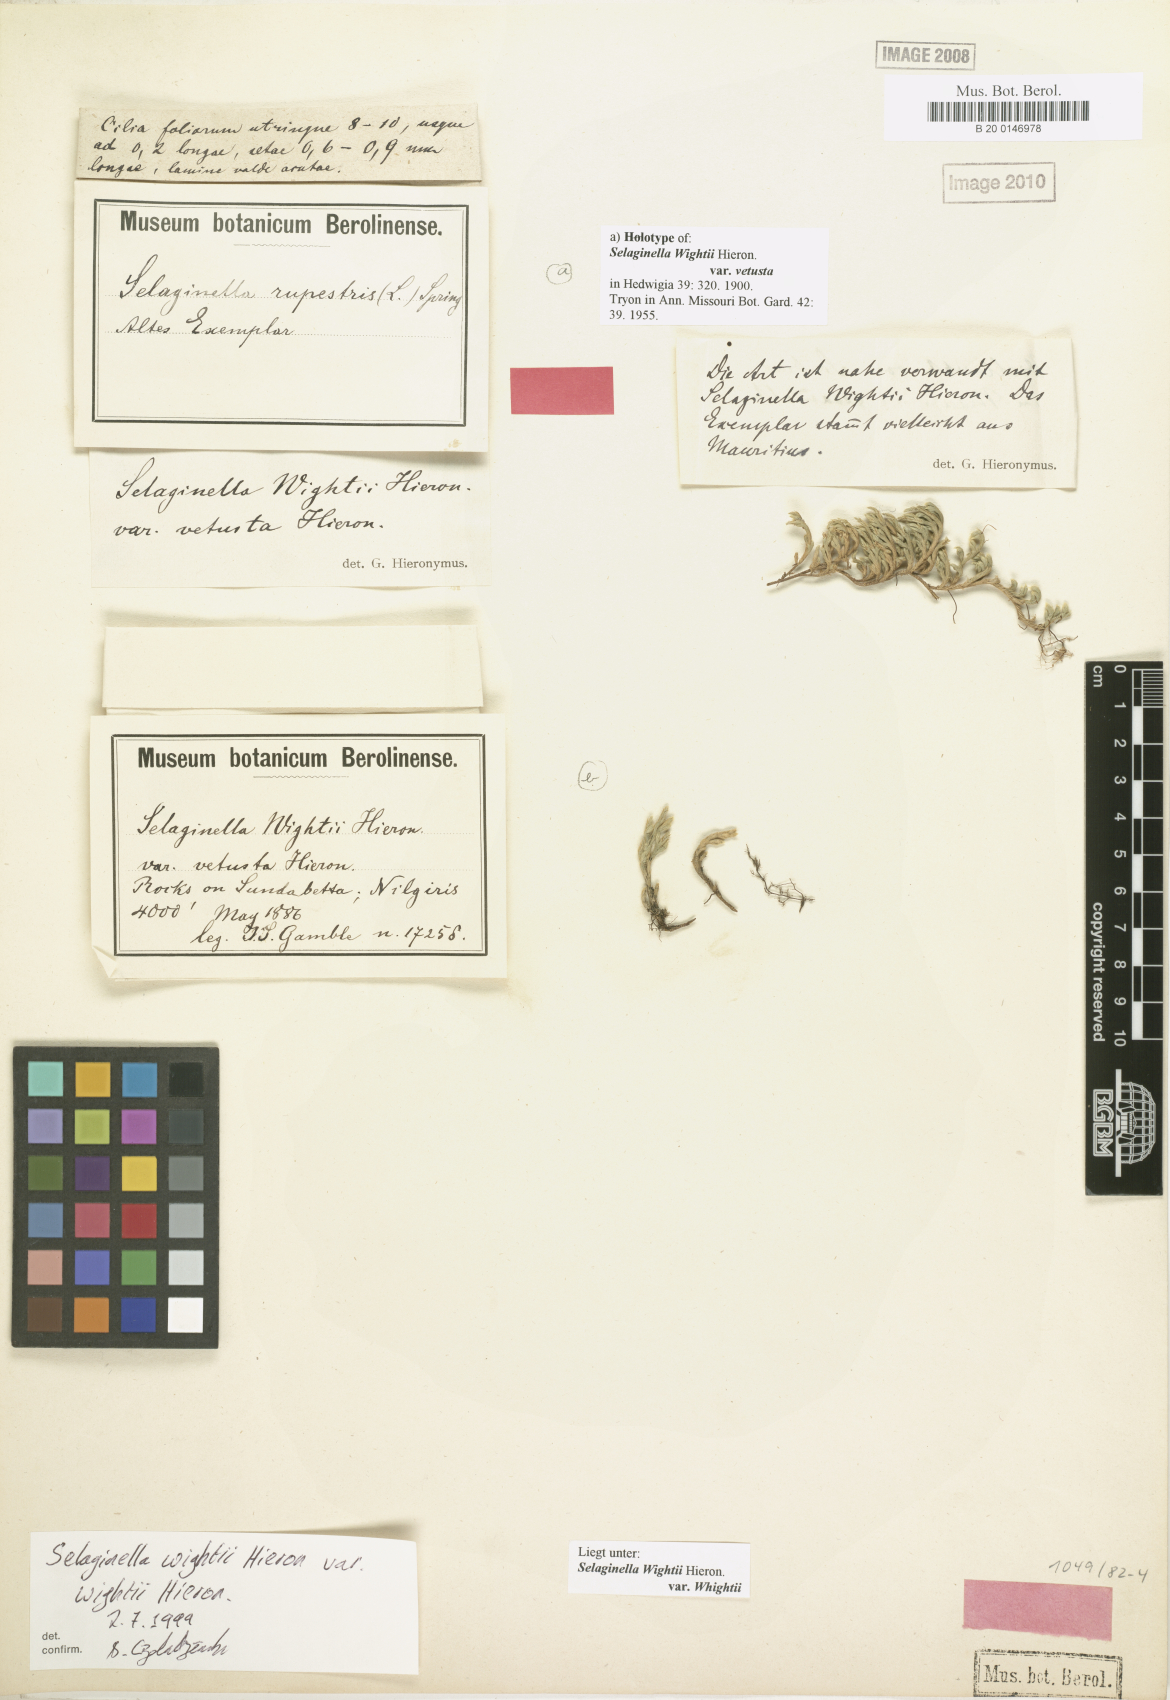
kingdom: Plantae
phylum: Tracheophyta
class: Lycopodiopsida
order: Selaginellales
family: Selaginellaceae
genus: Selaginella
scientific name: Selaginella wightii
